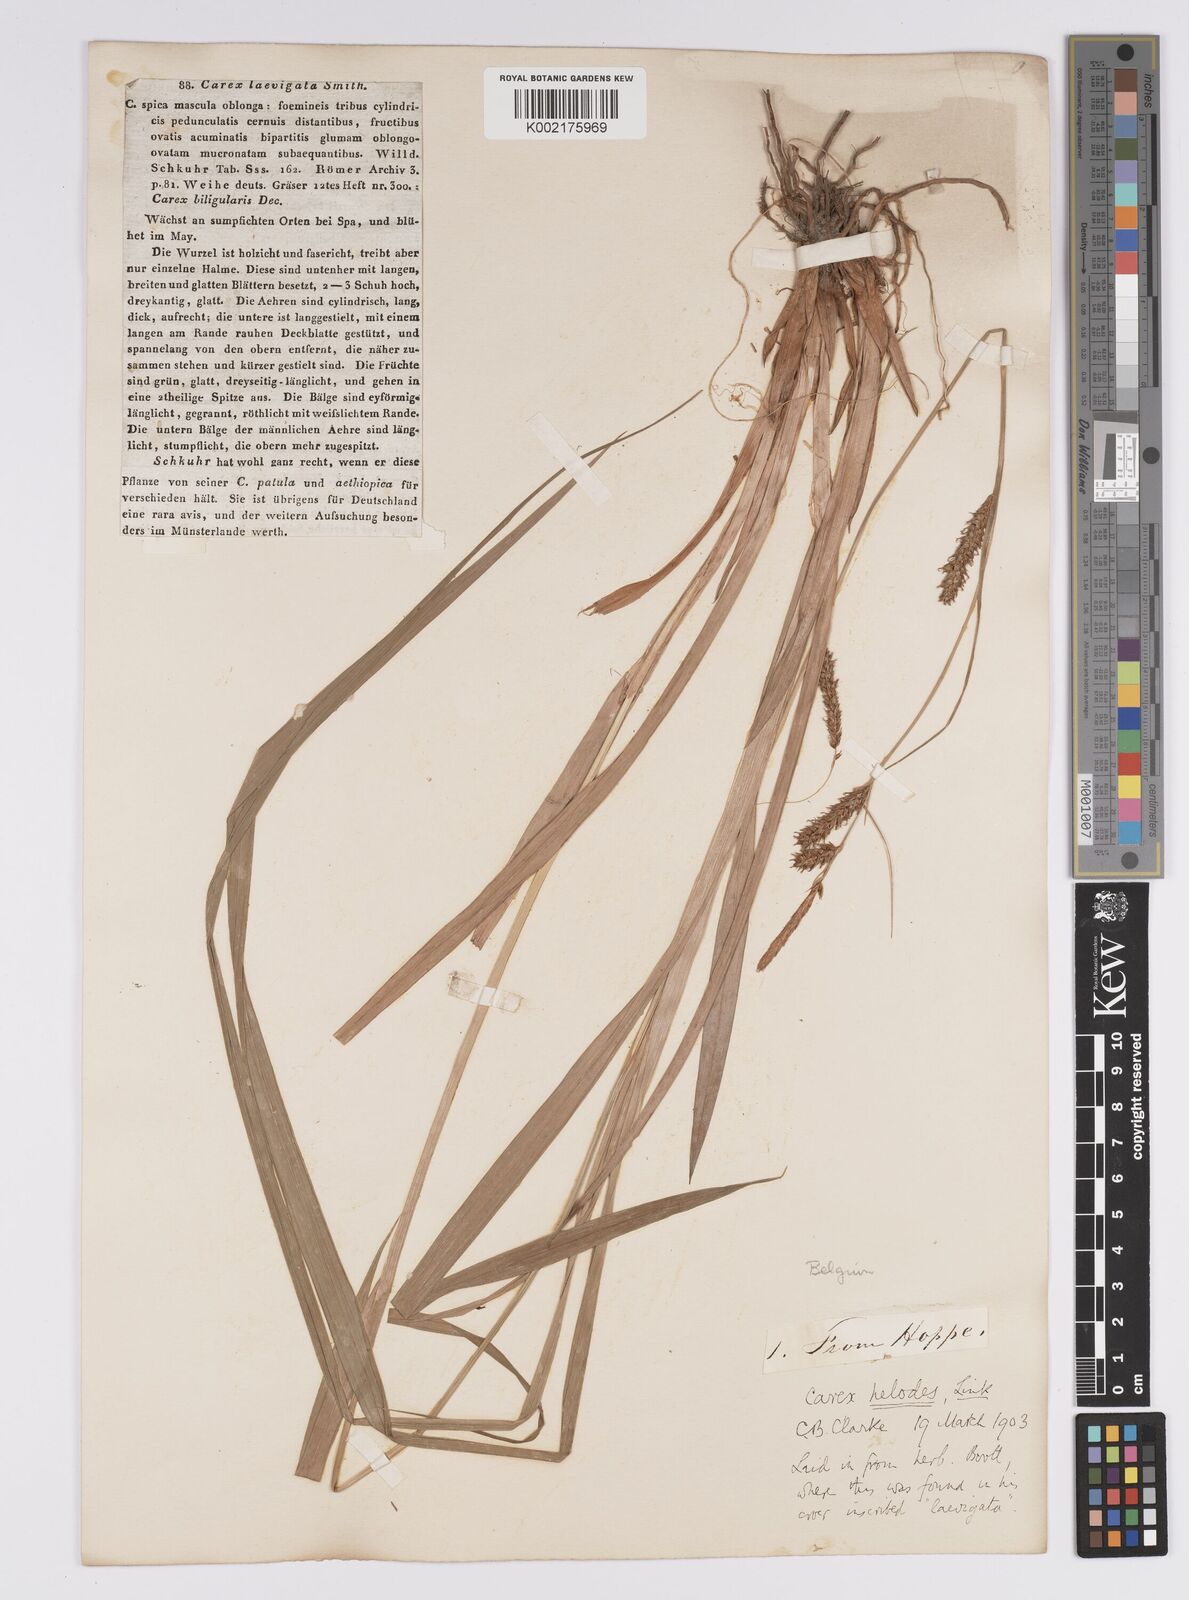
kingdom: Plantae
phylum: Tracheophyta
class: Liliopsida
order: Poales
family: Cyperaceae
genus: Carex
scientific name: Carex laevigata
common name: Smooth-stalked sedge
